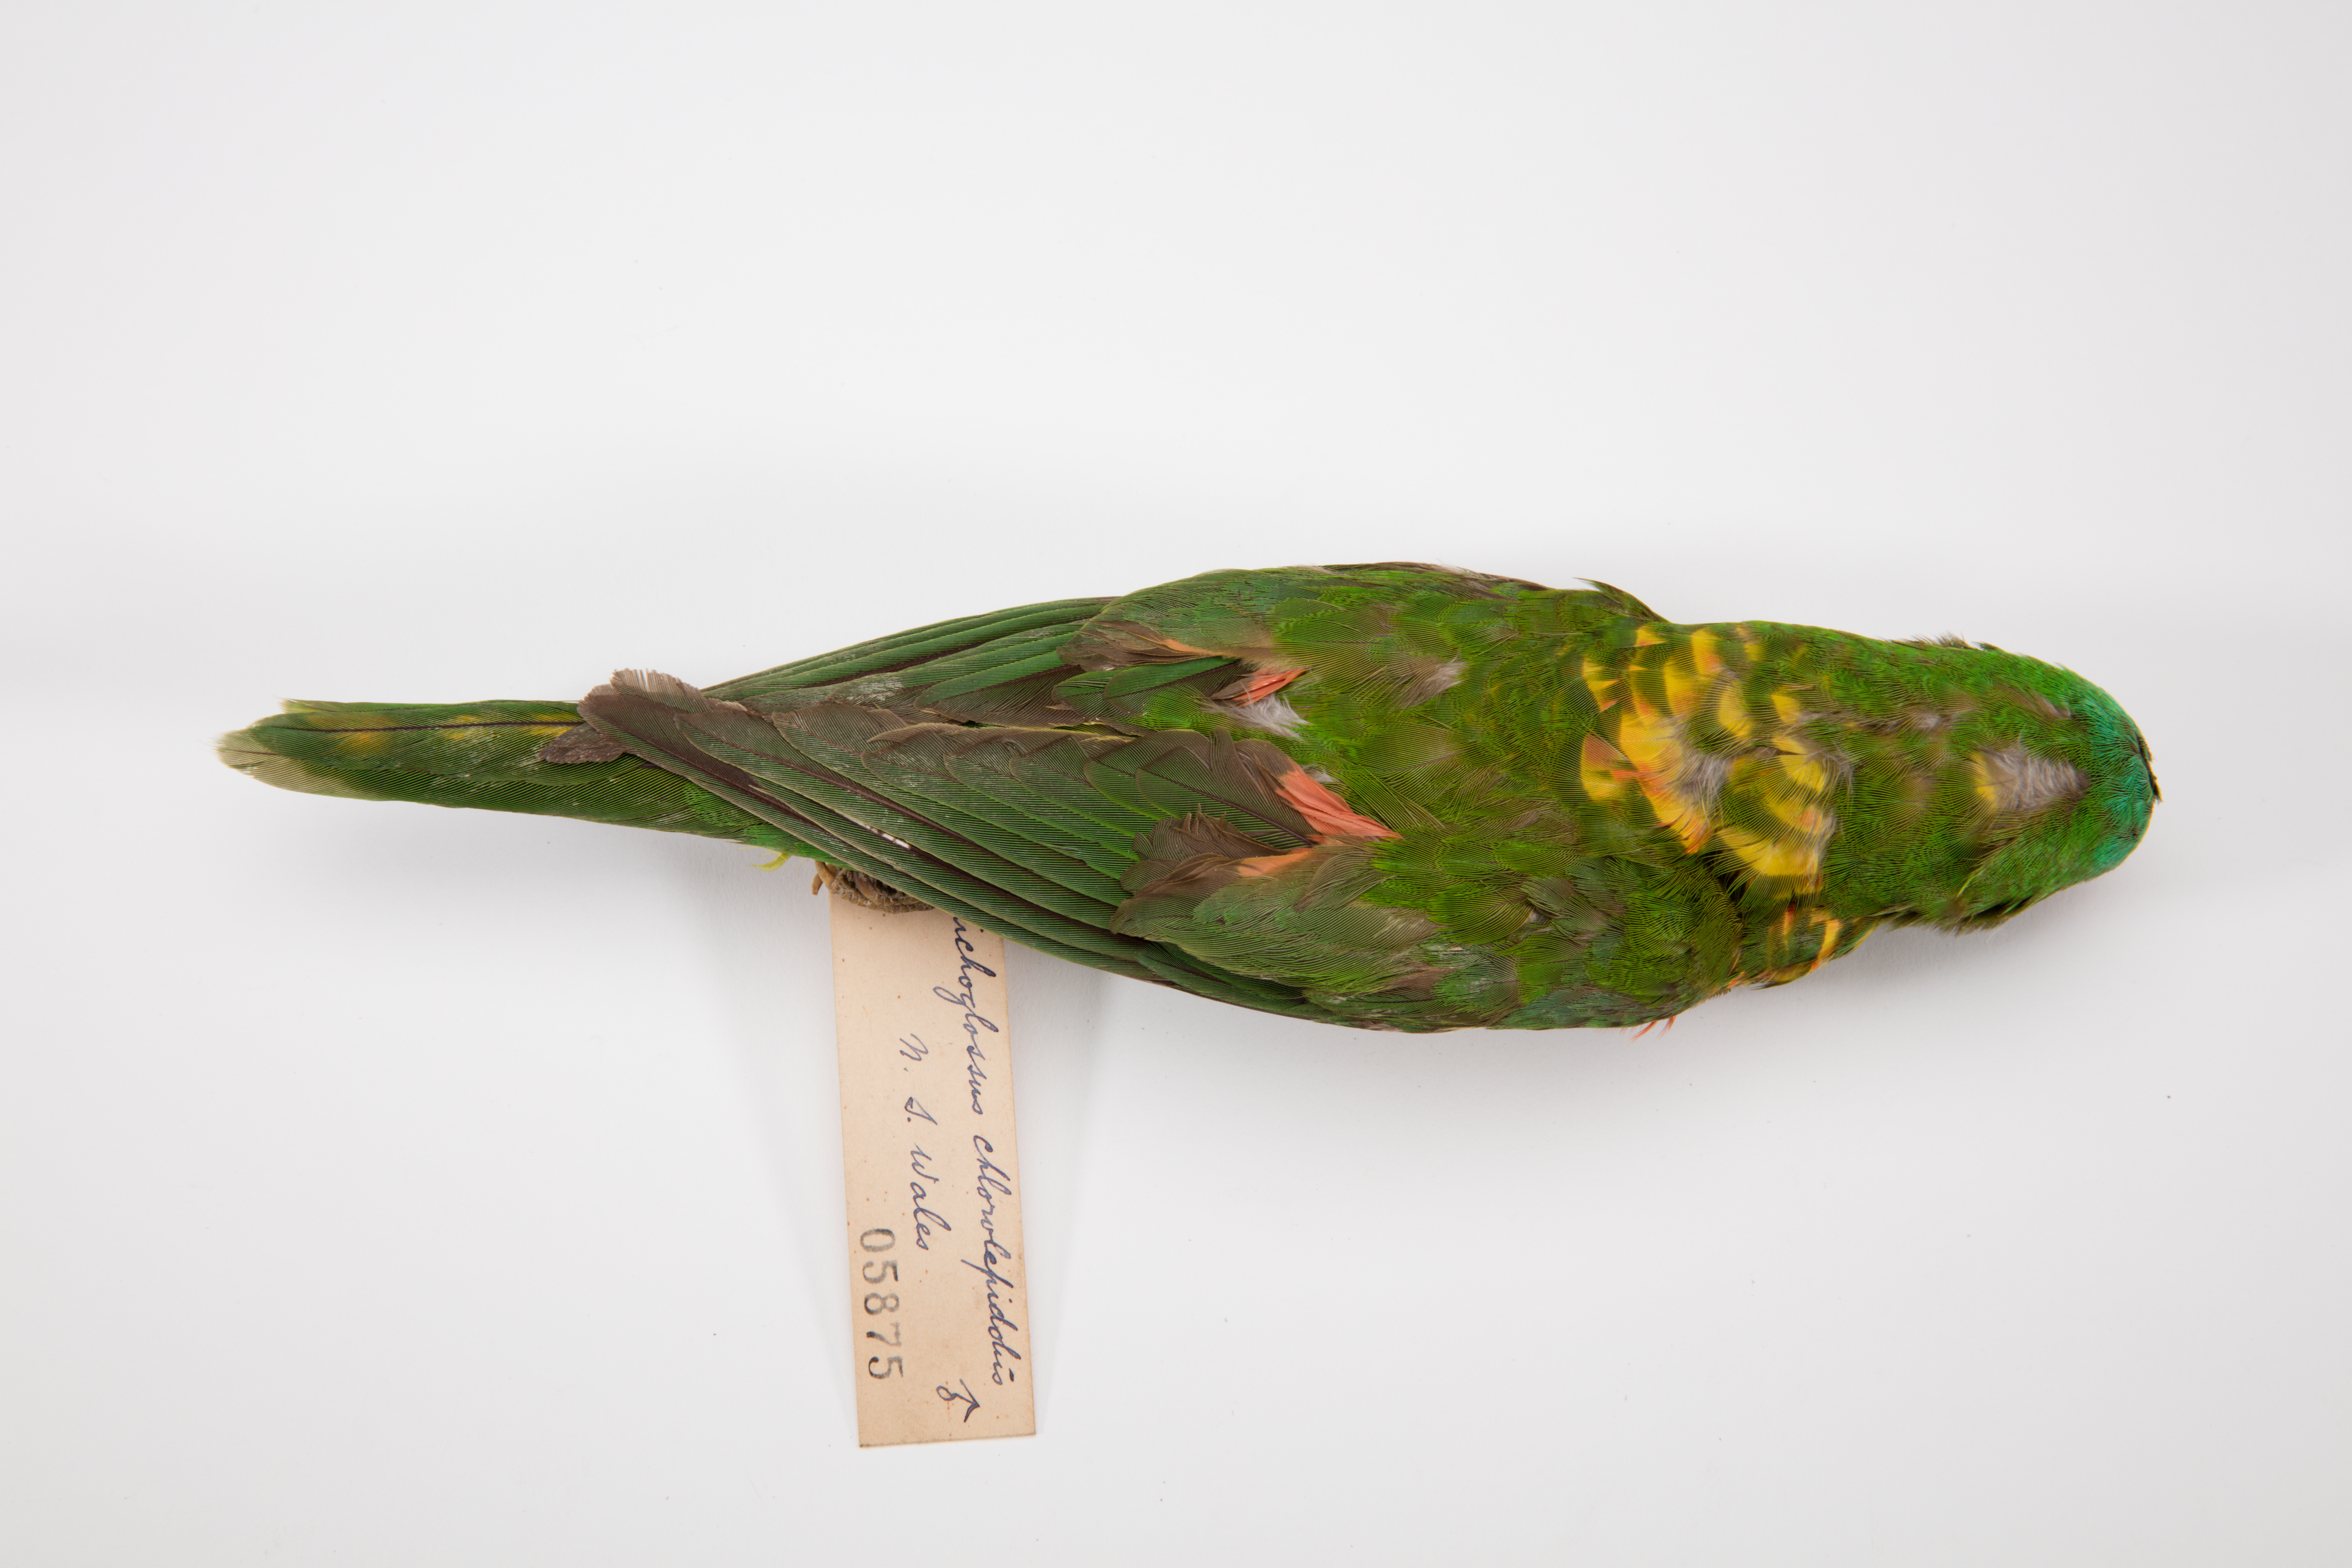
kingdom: Animalia
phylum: Chordata
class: Aves
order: Psittaciformes
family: Psittacidae
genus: Trichoglossus
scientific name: Trichoglossus chlorolepidotus
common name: Scaly-breasted lorikeet
